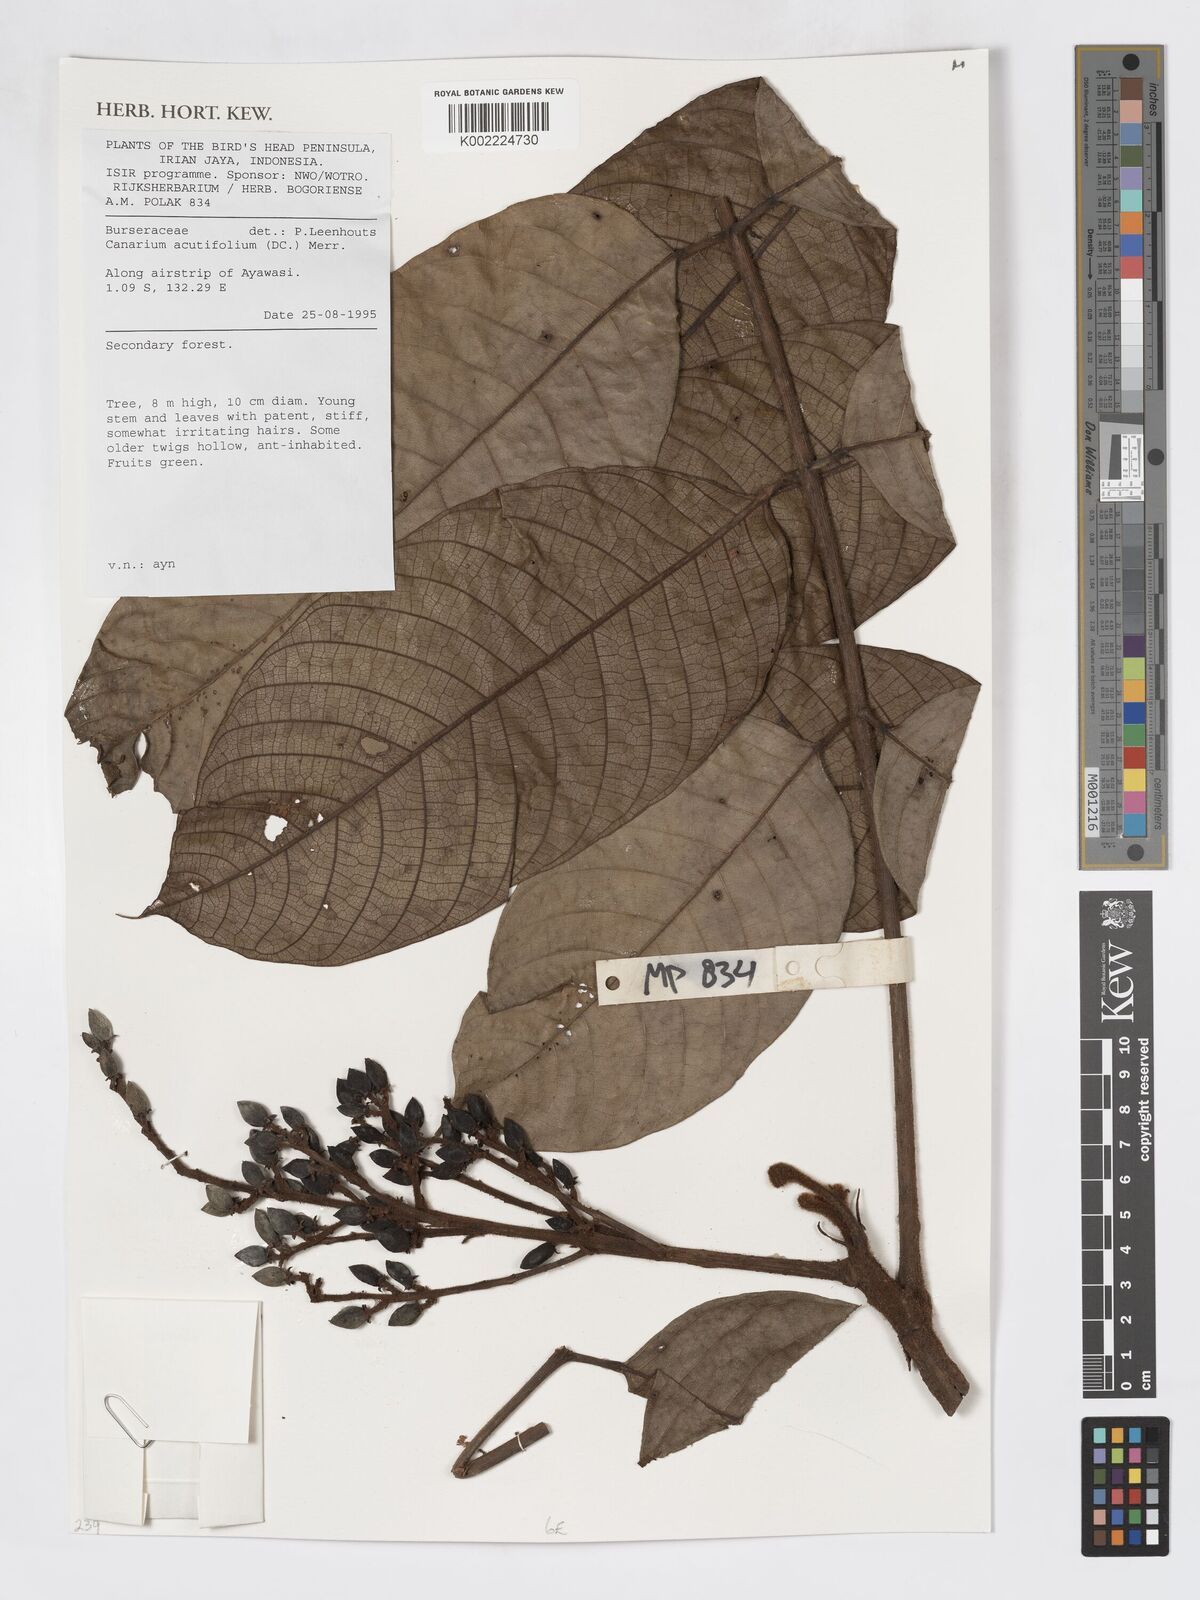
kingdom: Plantae
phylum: Tracheophyta
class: Magnoliopsida
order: Sapindales
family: Burseraceae
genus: Canarium
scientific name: Canarium acutifolium
